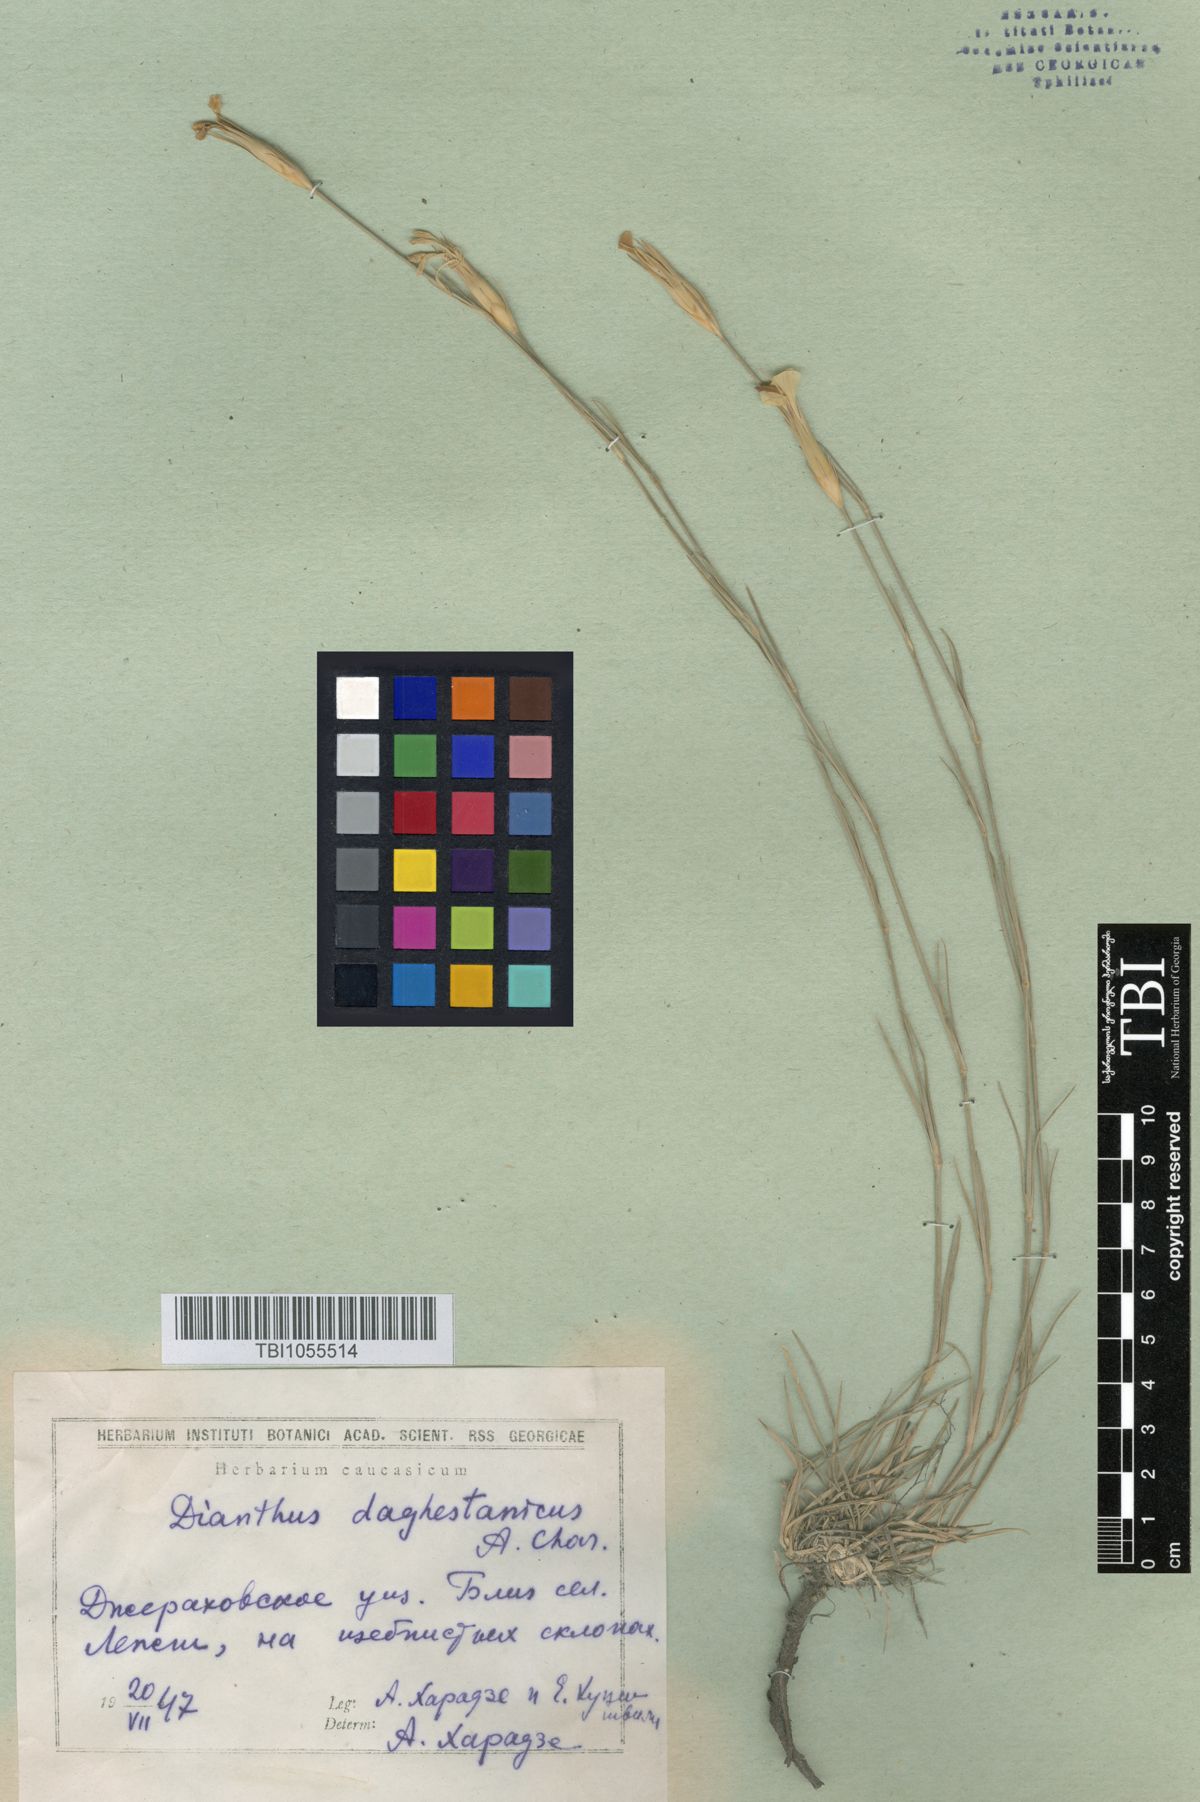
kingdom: Plantae
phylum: Tracheophyta
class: Magnoliopsida
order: Caryophyllales
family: Caryophyllaceae
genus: Dianthus
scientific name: Dianthus daghestanicus
